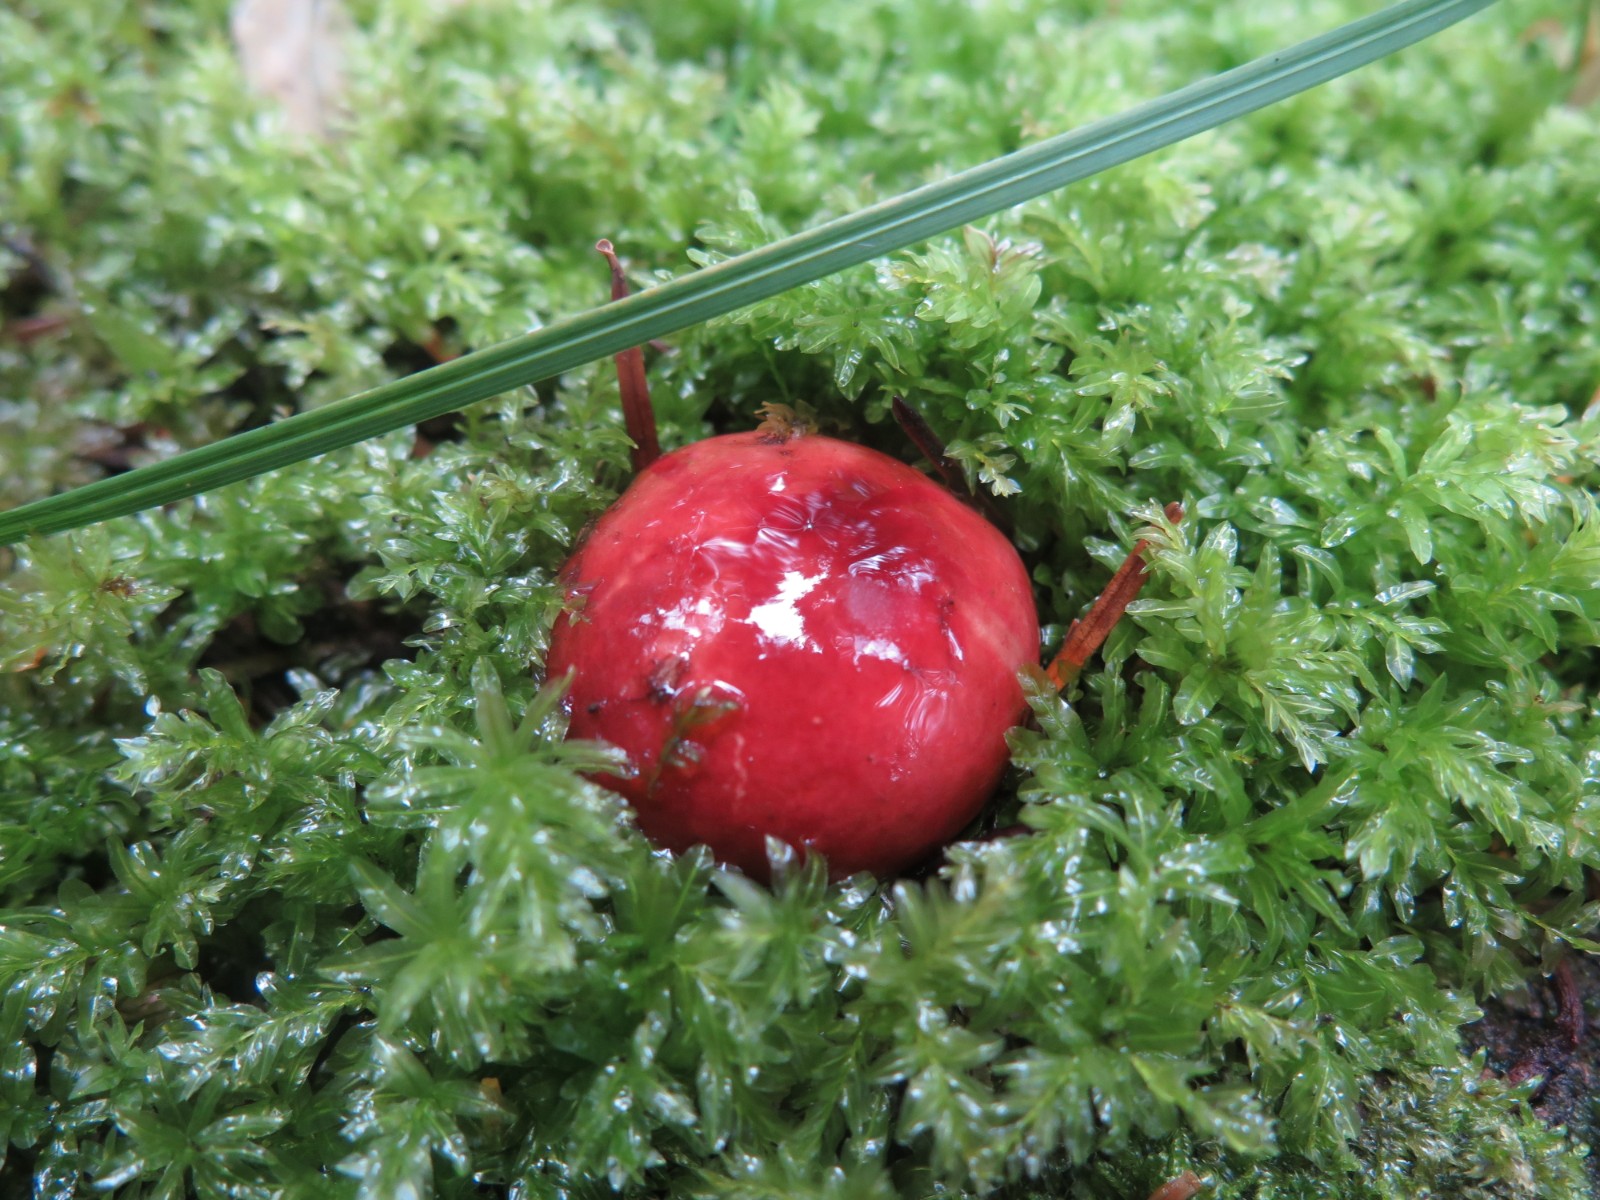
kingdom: Fungi
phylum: Basidiomycota
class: Agaricomycetes
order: Russulales
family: Russulaceae
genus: Russula
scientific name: Russula emetica
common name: stor gift-skørhat
